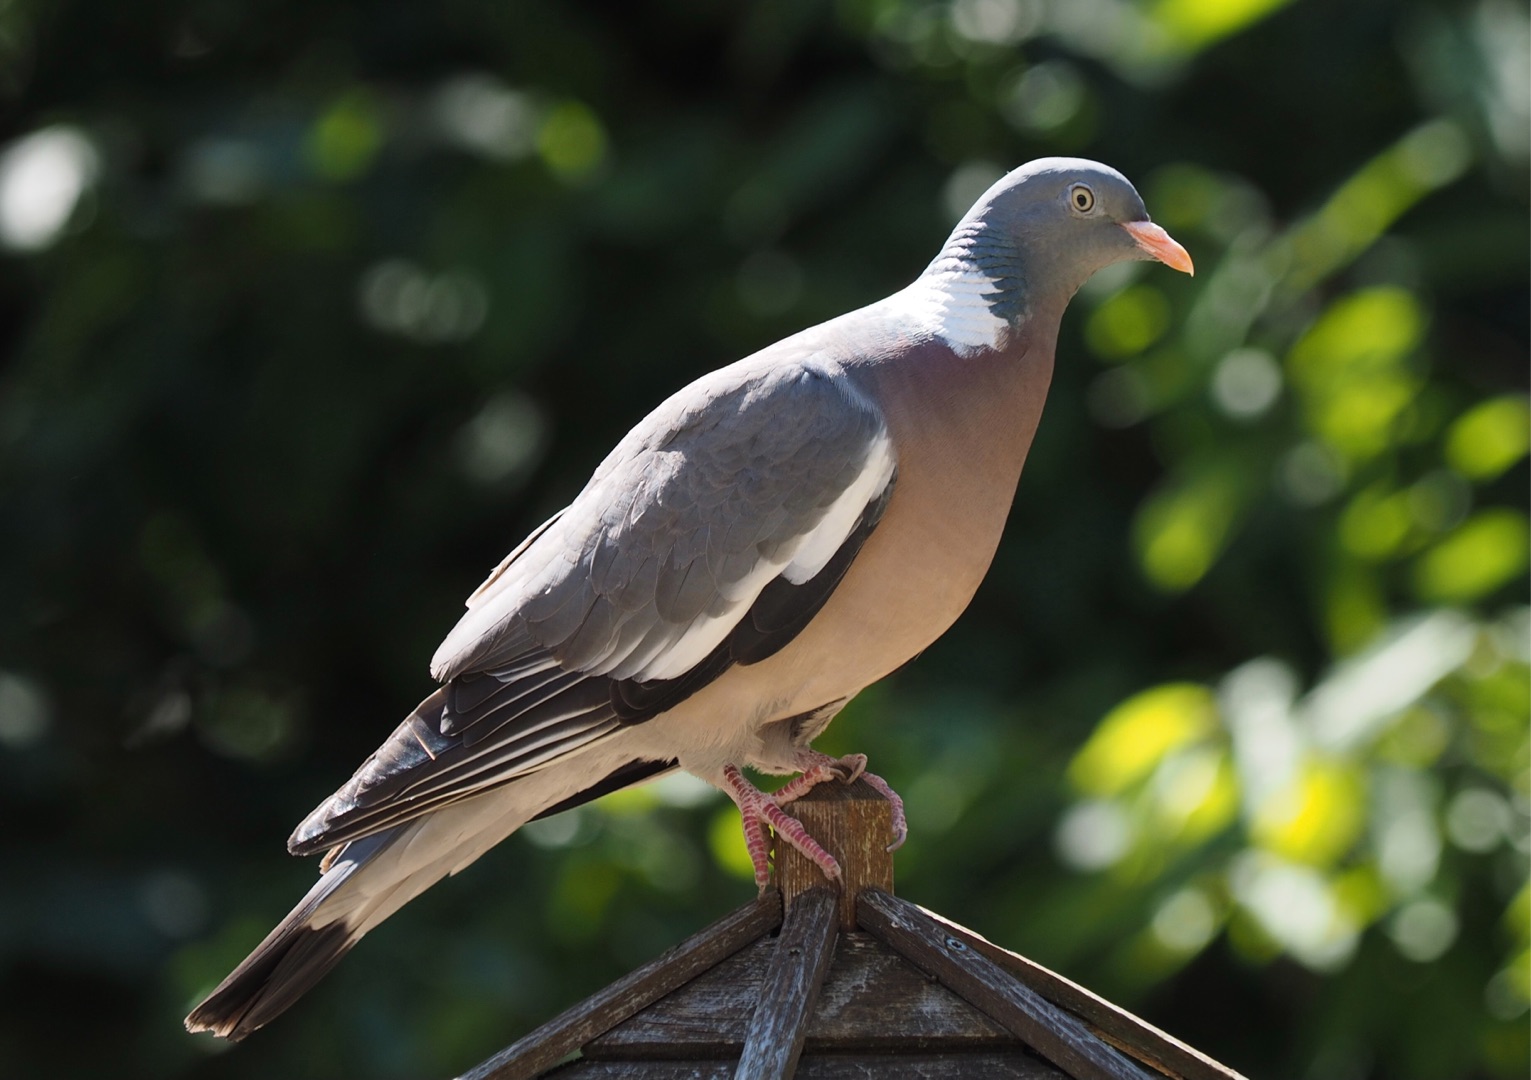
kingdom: Animalia
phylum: Chordata
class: Aves
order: Columbiformes
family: Columbidae
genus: Columba
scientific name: Columba palumbus
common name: Ringdue
